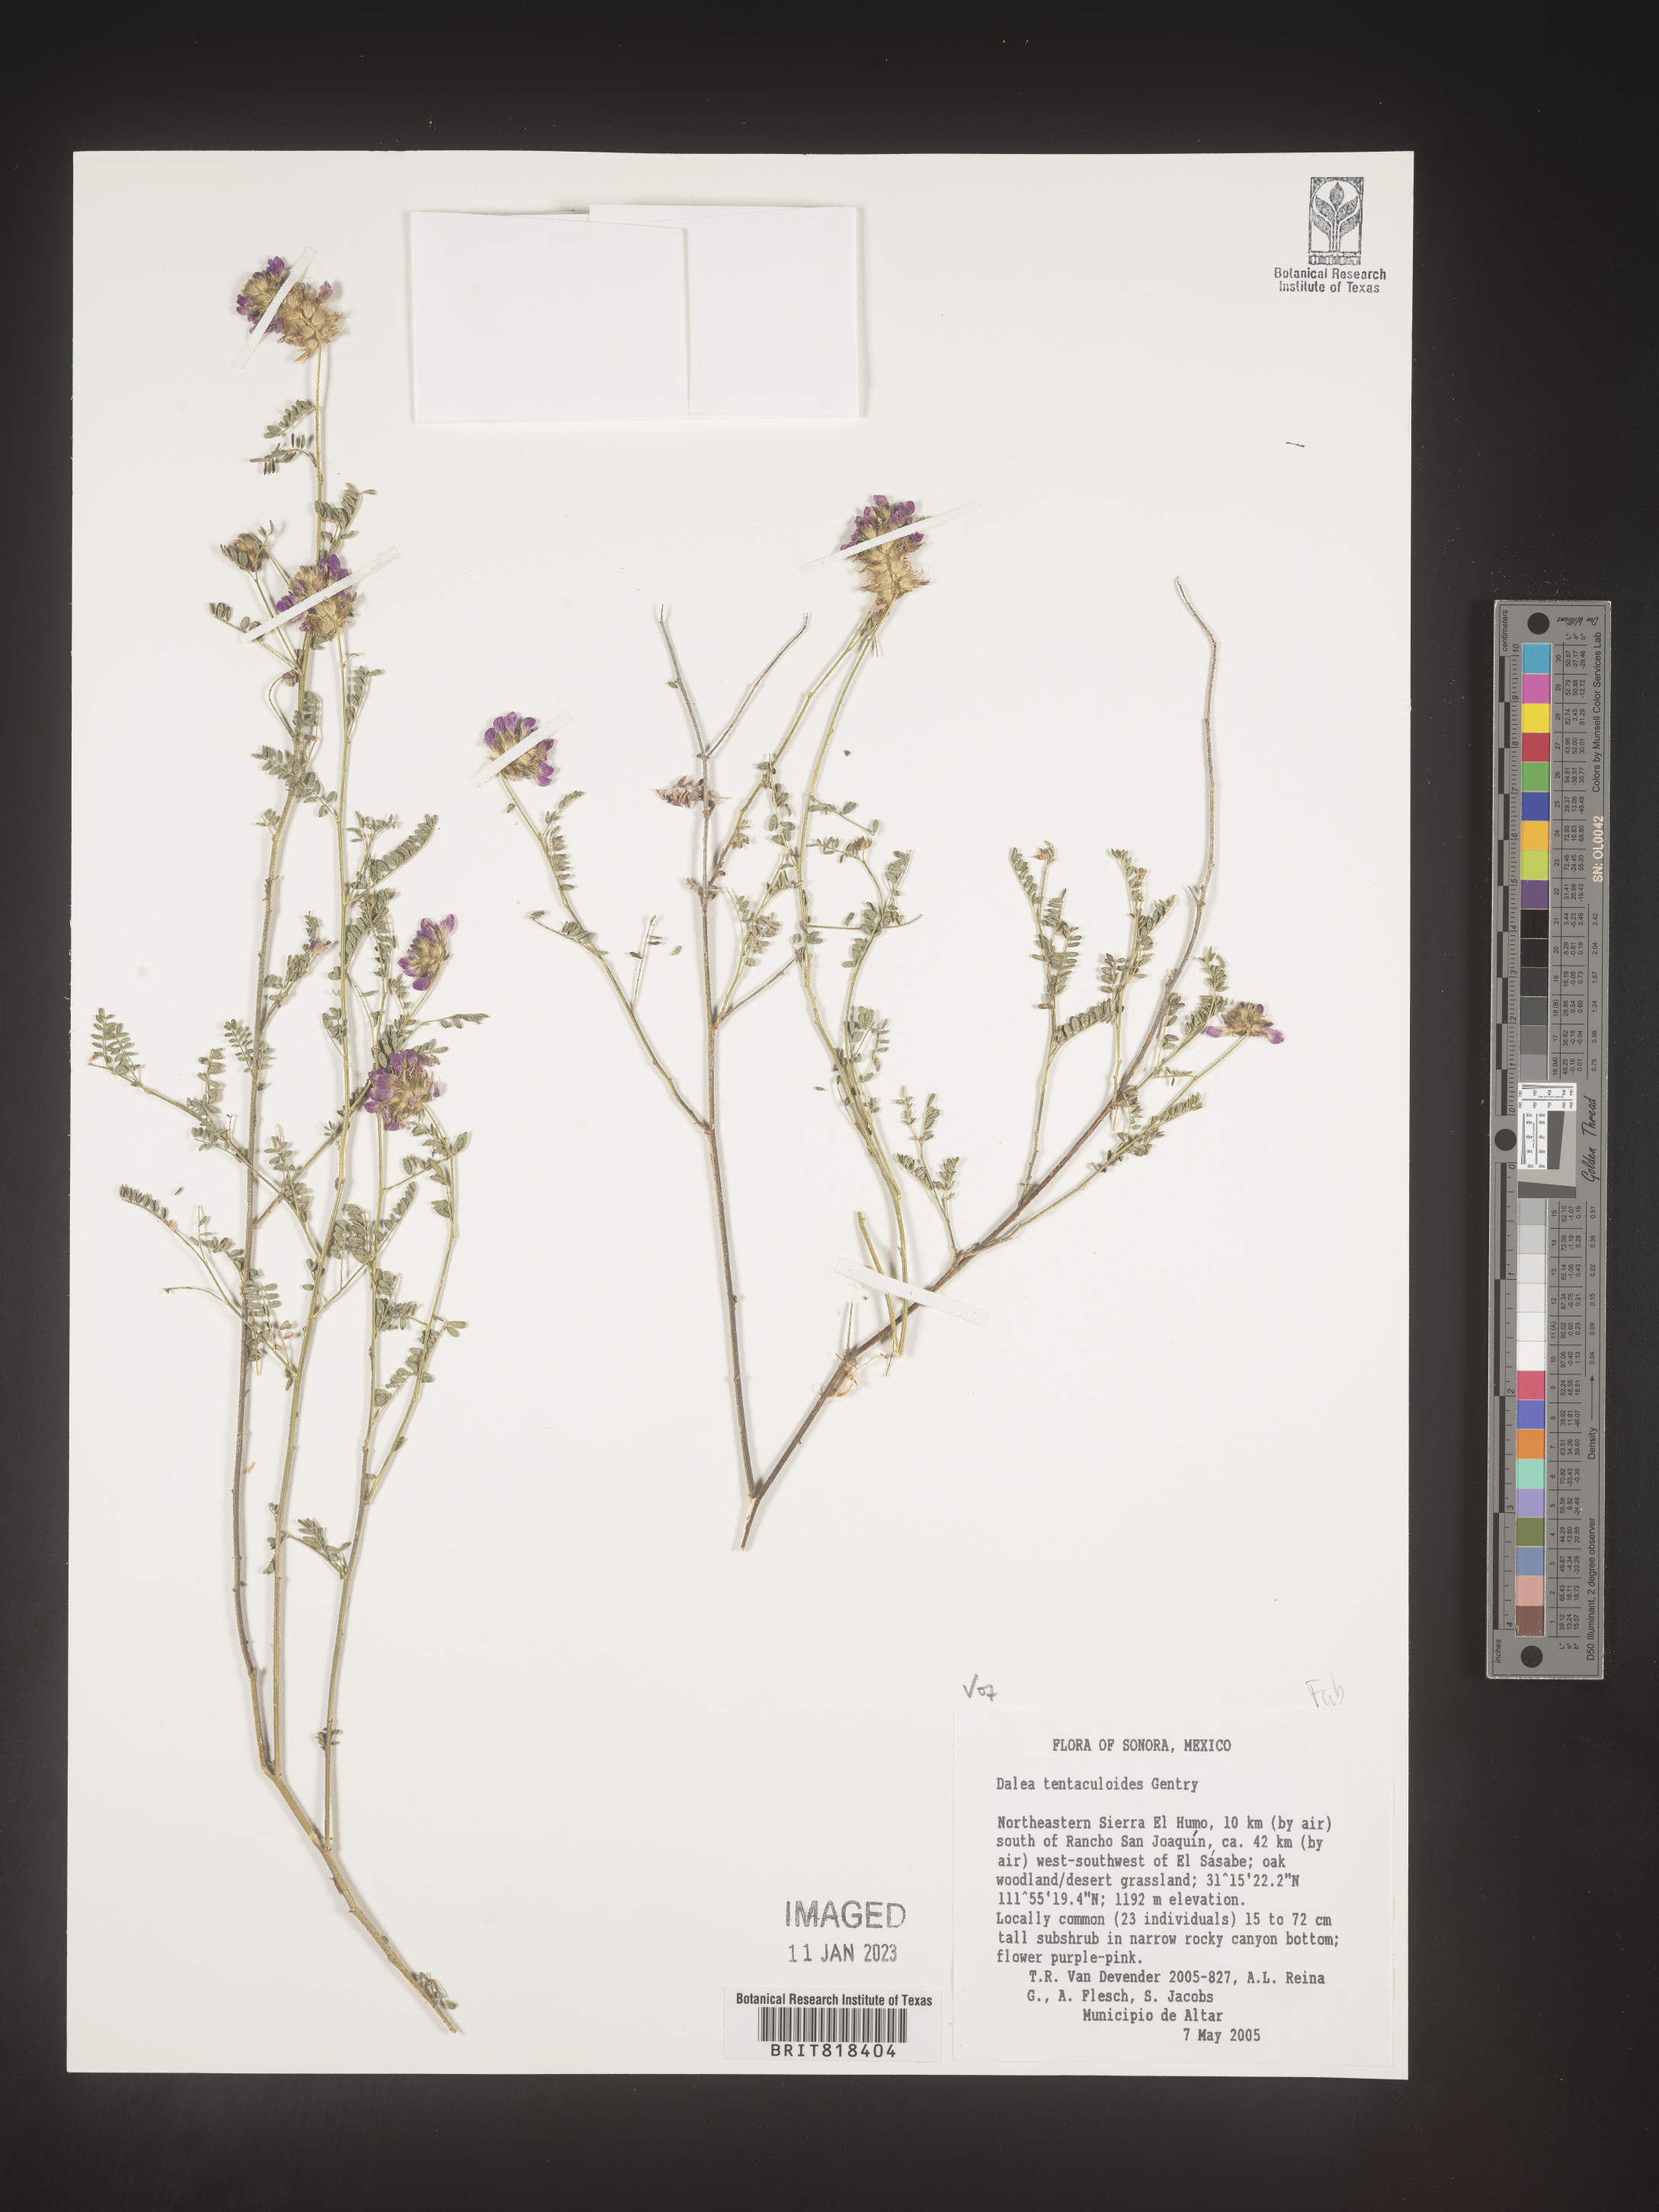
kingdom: Plantae
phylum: Tracheophyta
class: Magnoliopsida
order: Fabales
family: Fabaceae
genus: Dalea
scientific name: Dalea
